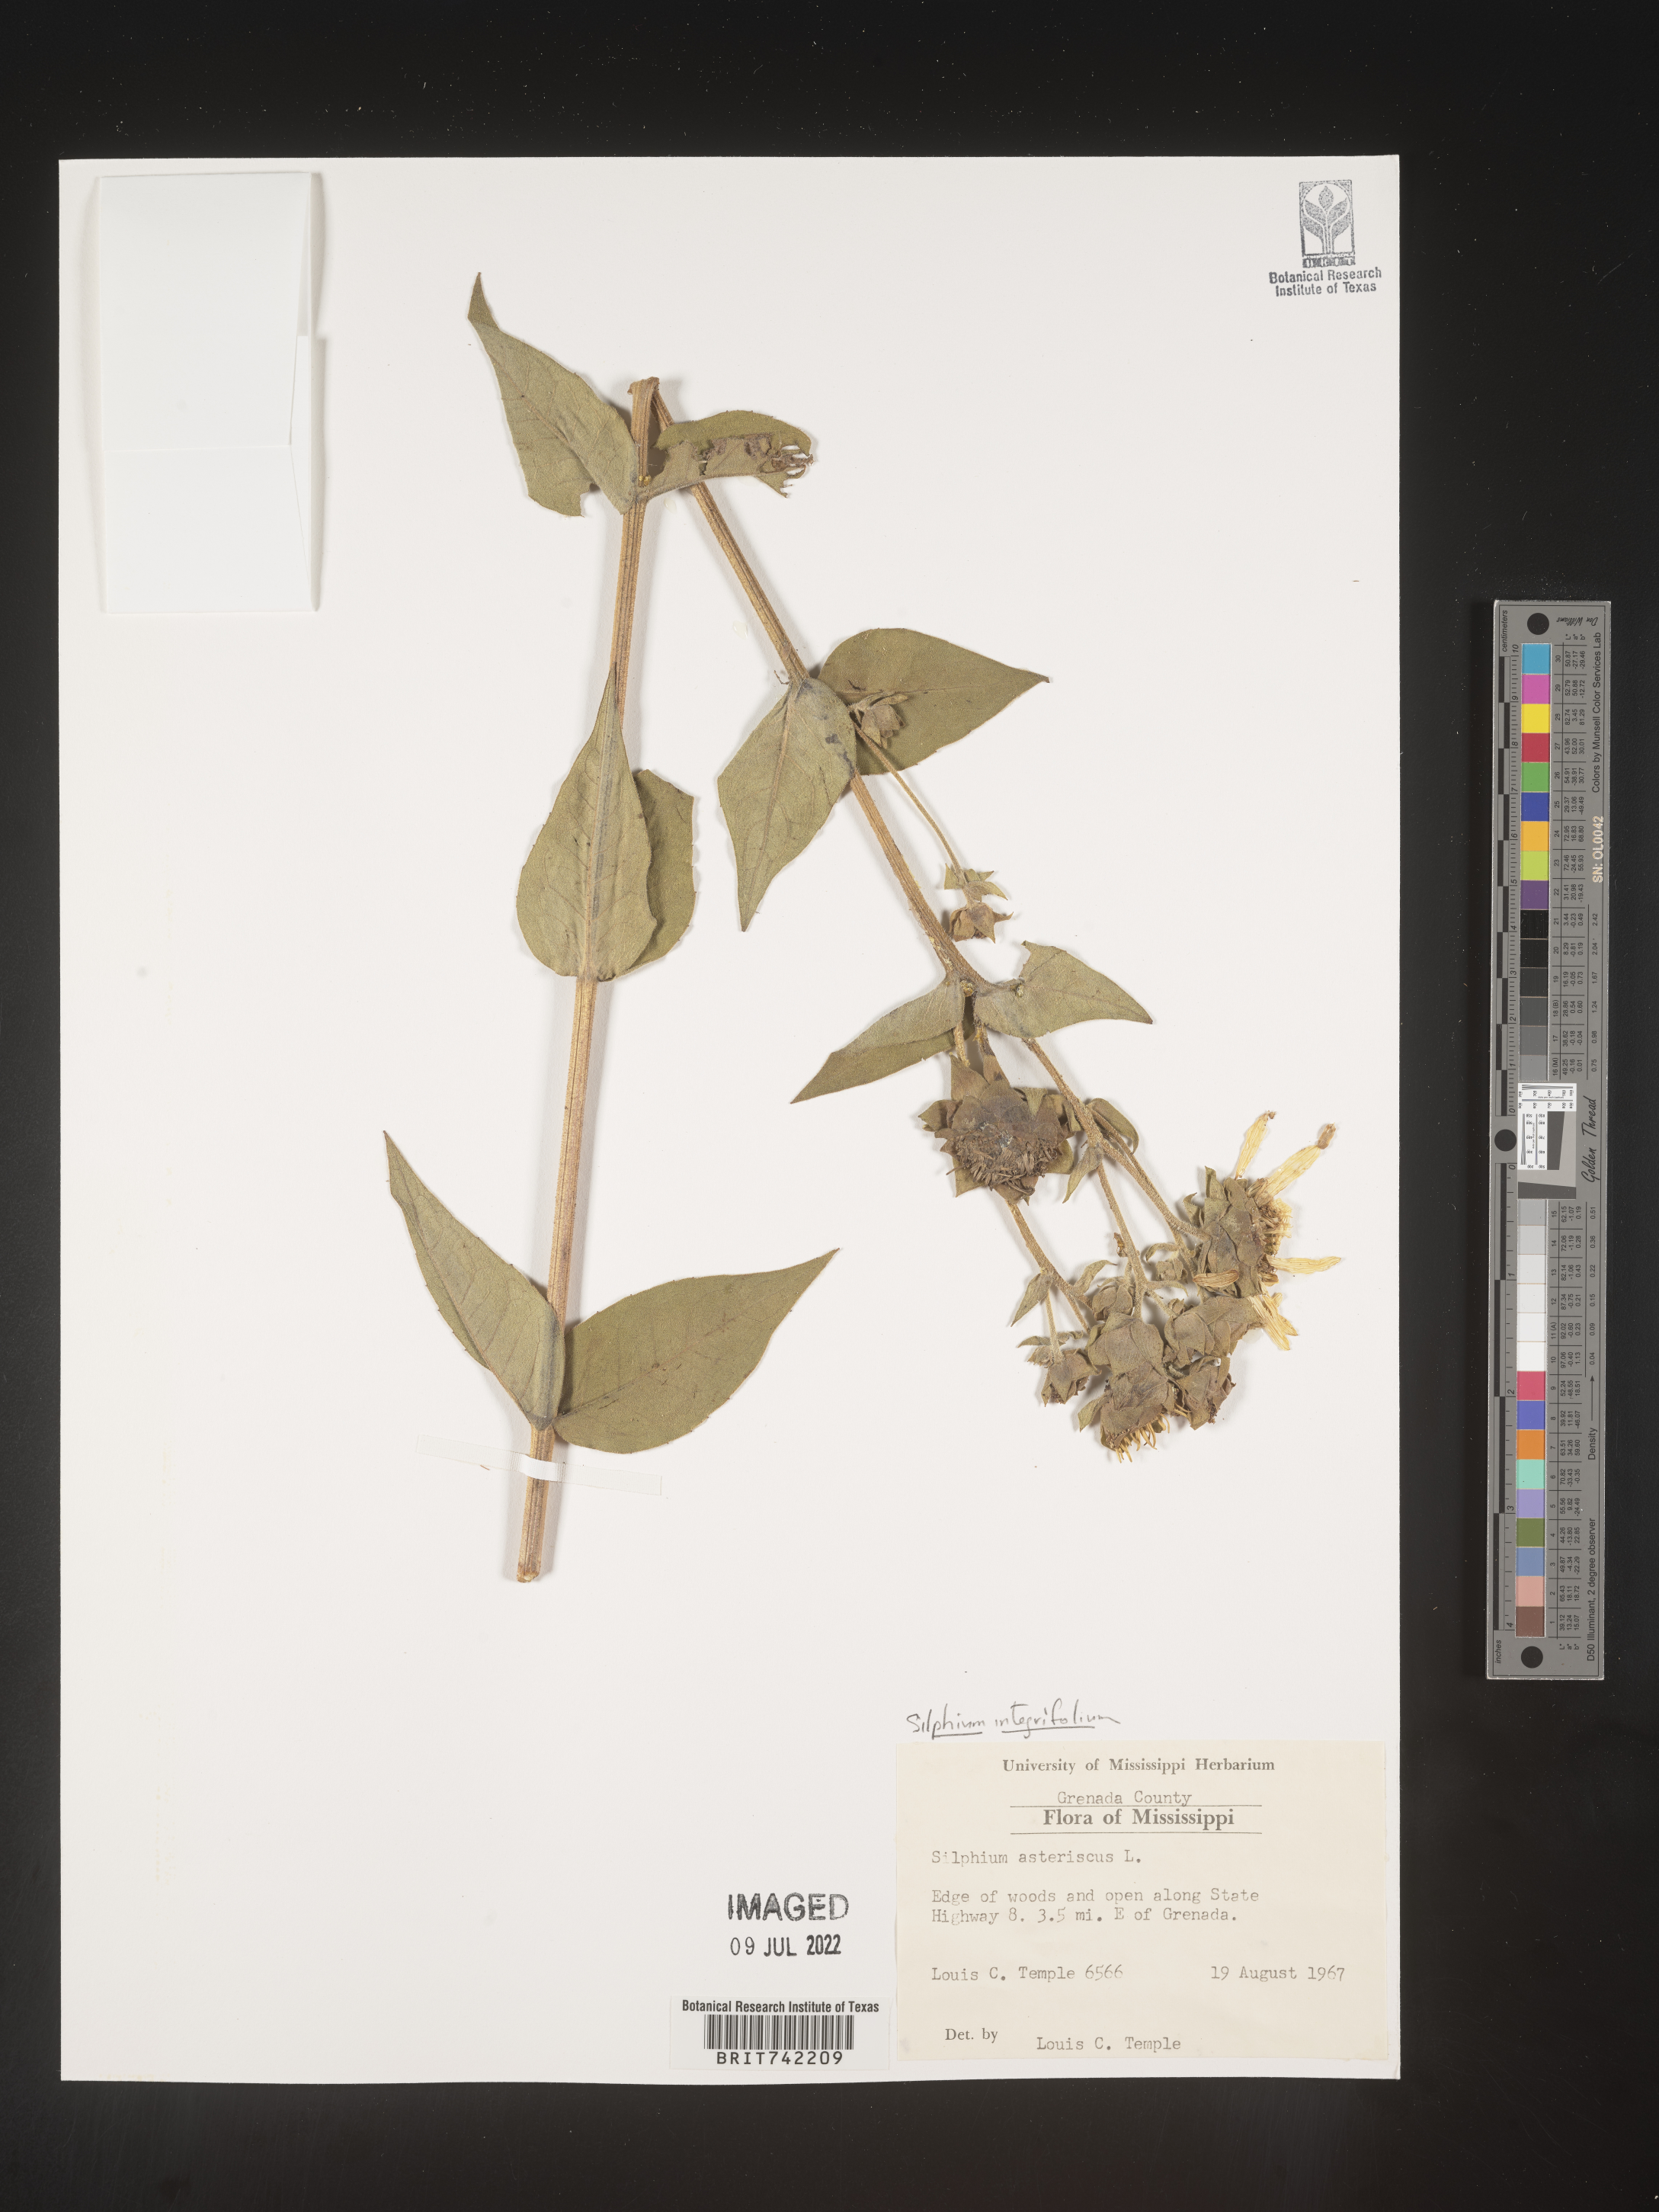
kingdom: Plantae
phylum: Tracheophyta
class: Magnoliopsida
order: Asterales
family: Asteraceae
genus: Silphium
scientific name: Silphium integrifolium
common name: Whole-leaf rosinweed
